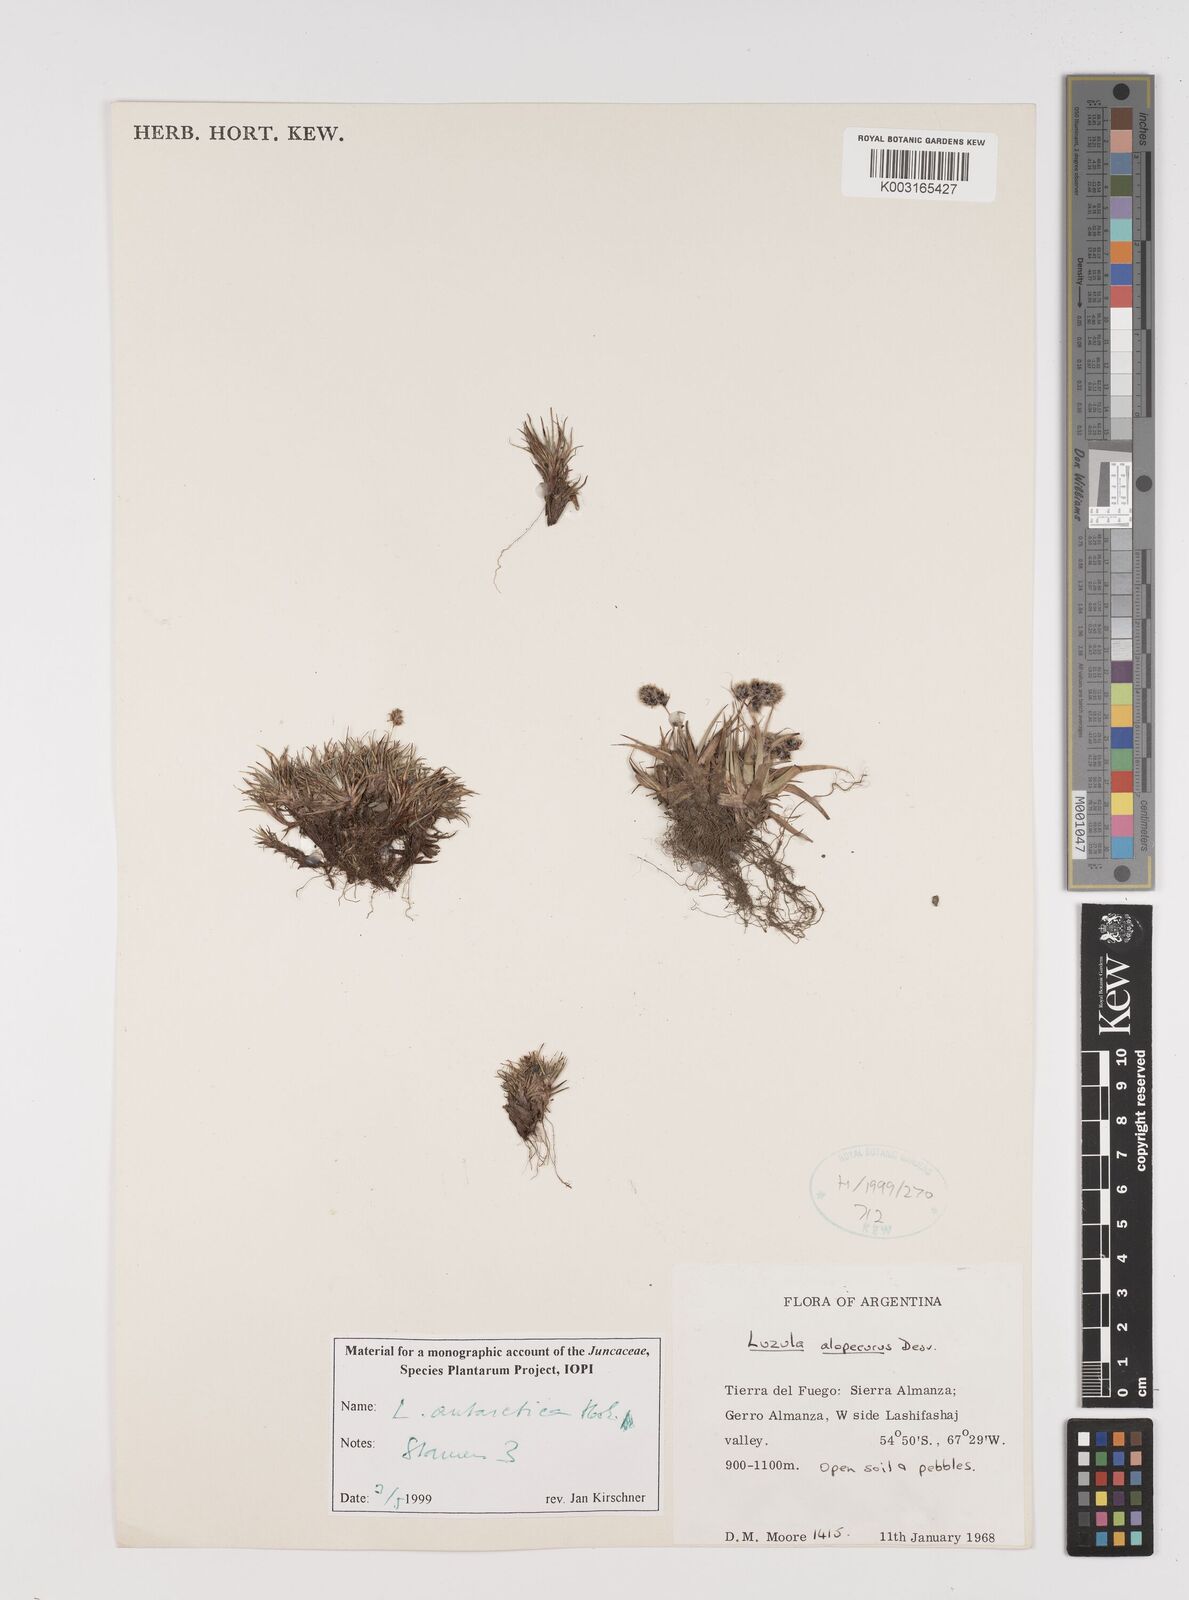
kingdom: Plantae
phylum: Tracheophyta
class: Liliopsida
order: Poales
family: Juncaceae
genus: Luzula
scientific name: Luzula alopecurus
